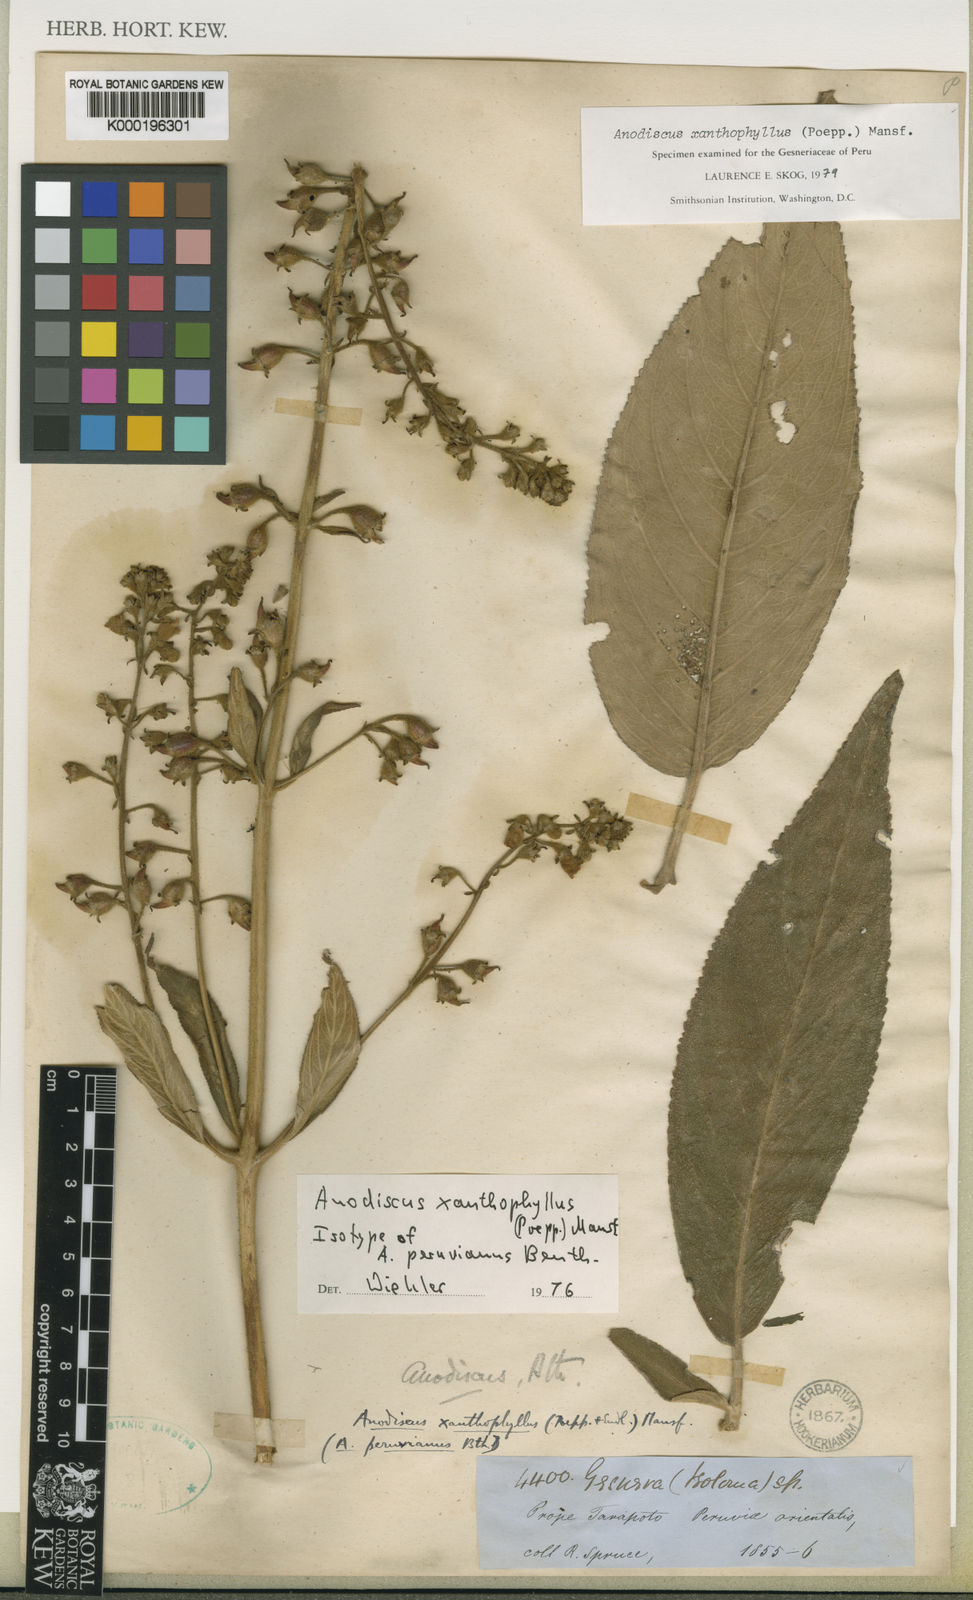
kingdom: Plantae
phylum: Tracheophyta
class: Magnoliopsida
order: Lamiales
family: Gesneriaceae
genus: Gloxinia
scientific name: Gloxinia xanthophylla
